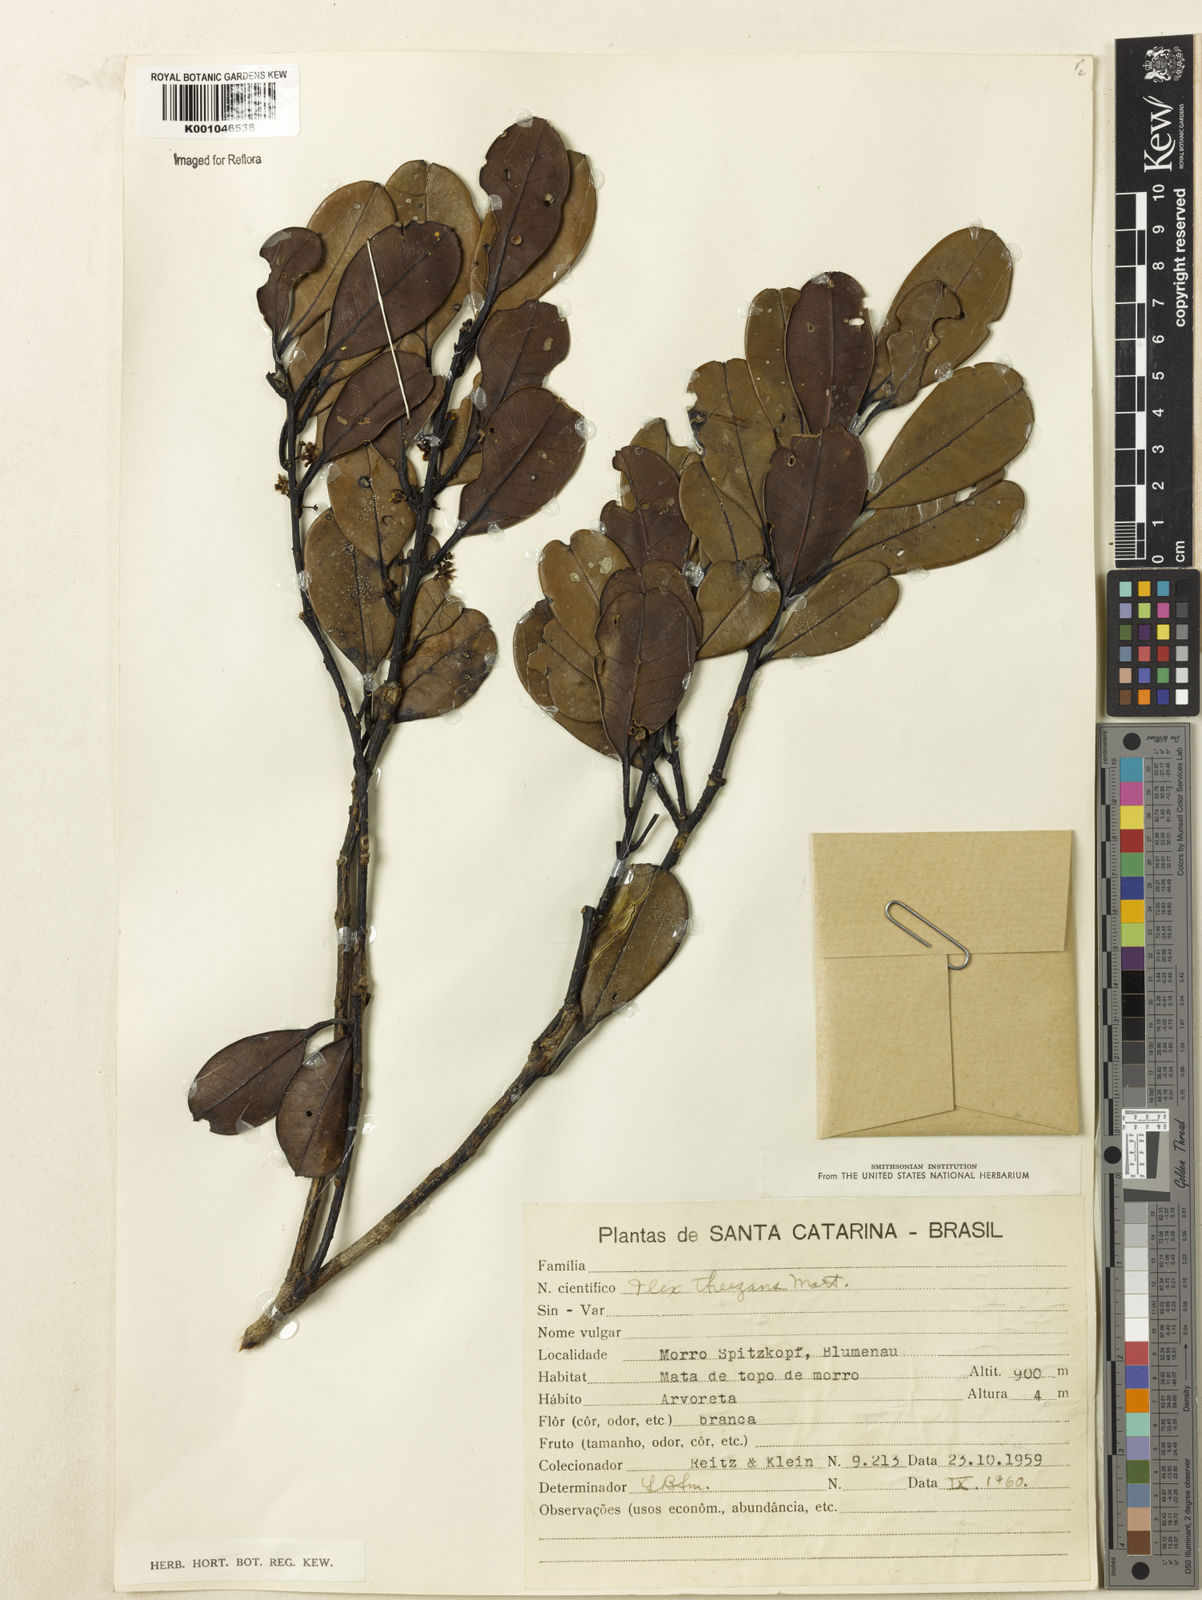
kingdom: Plantae
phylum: Tracheophyta
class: Magnoliopsida
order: Aquifoliales
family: Aquifoliaceae
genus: Ilex
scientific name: Ilex theezans
